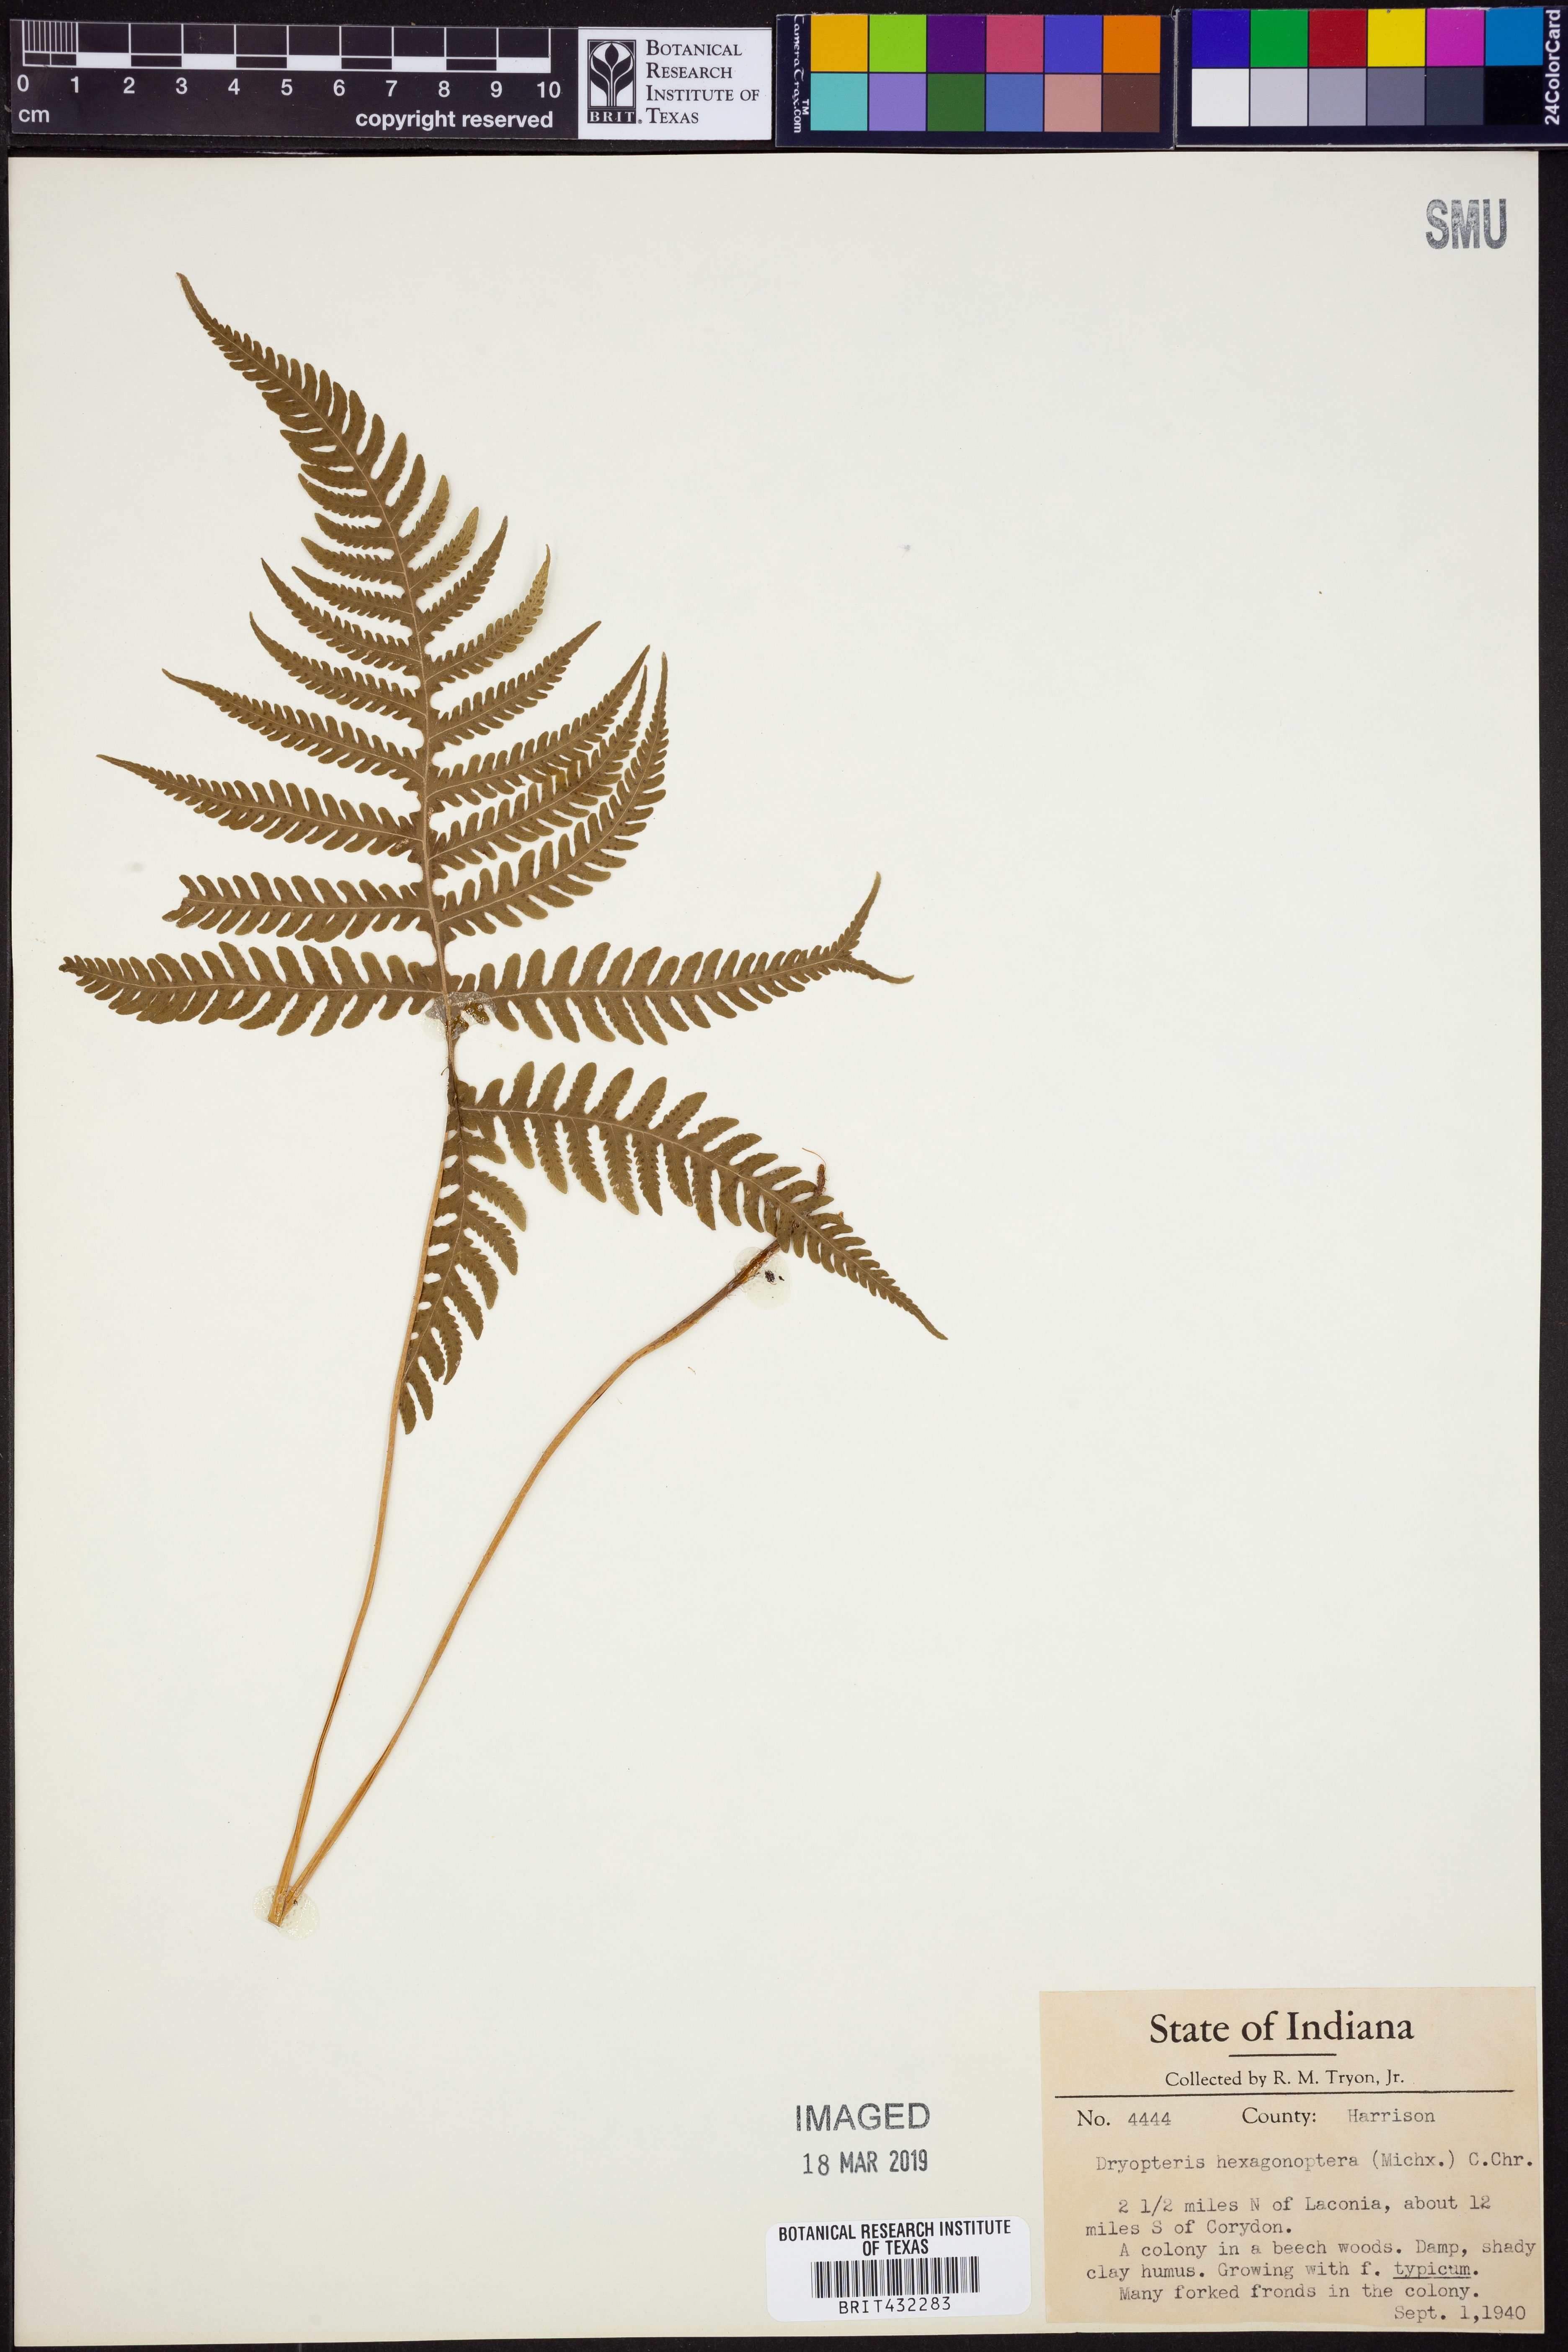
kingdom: Plantae
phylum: Tracheophyta
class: Polypodiopsida
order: Polypodiales
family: Dryopteridaceae
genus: Dryopteris
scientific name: Dryopteris hexagonaptera
